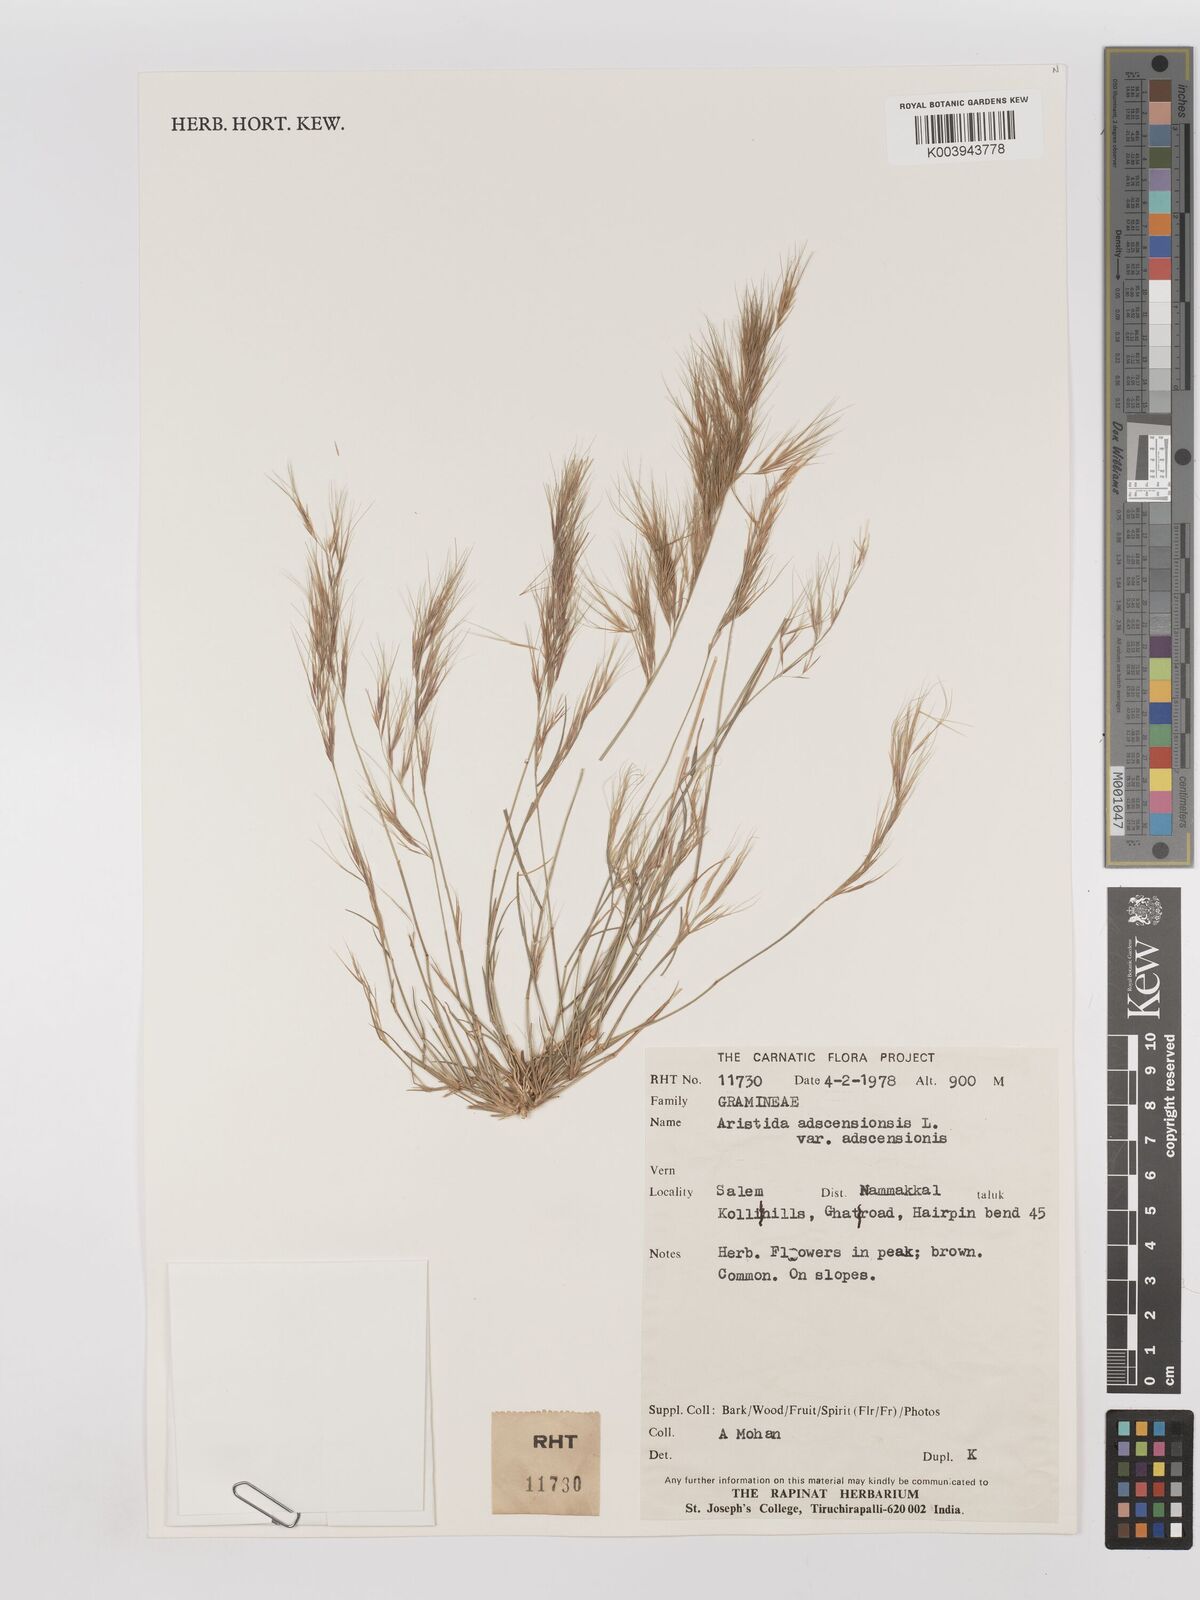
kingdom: Plantae
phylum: Tracheophyta
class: Liliopsida
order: Poales
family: Poaceae
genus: Aristida
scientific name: Aristida adscensionis
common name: Sixweeks threeawn
